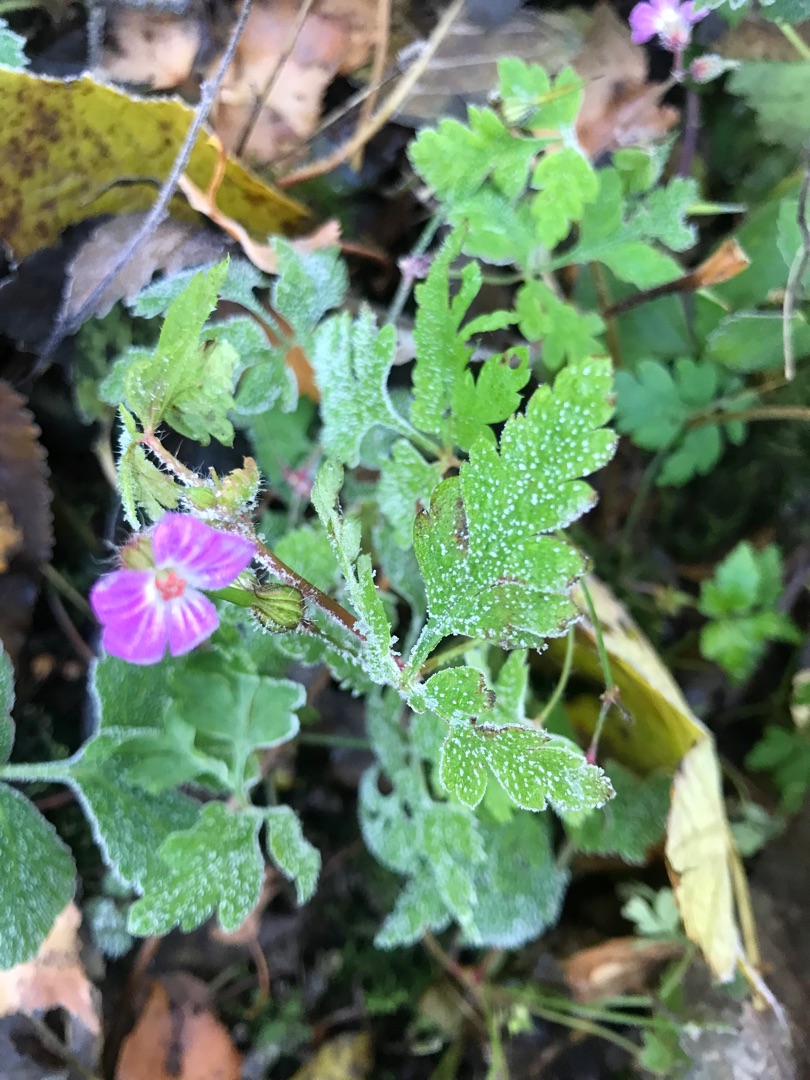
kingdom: Plantae
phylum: Tracheophyta
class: Magnoliopsida
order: Geraniales
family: Geraniaceae
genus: Geranium
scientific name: Geranium robertianum
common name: Stinkende storkenæb
